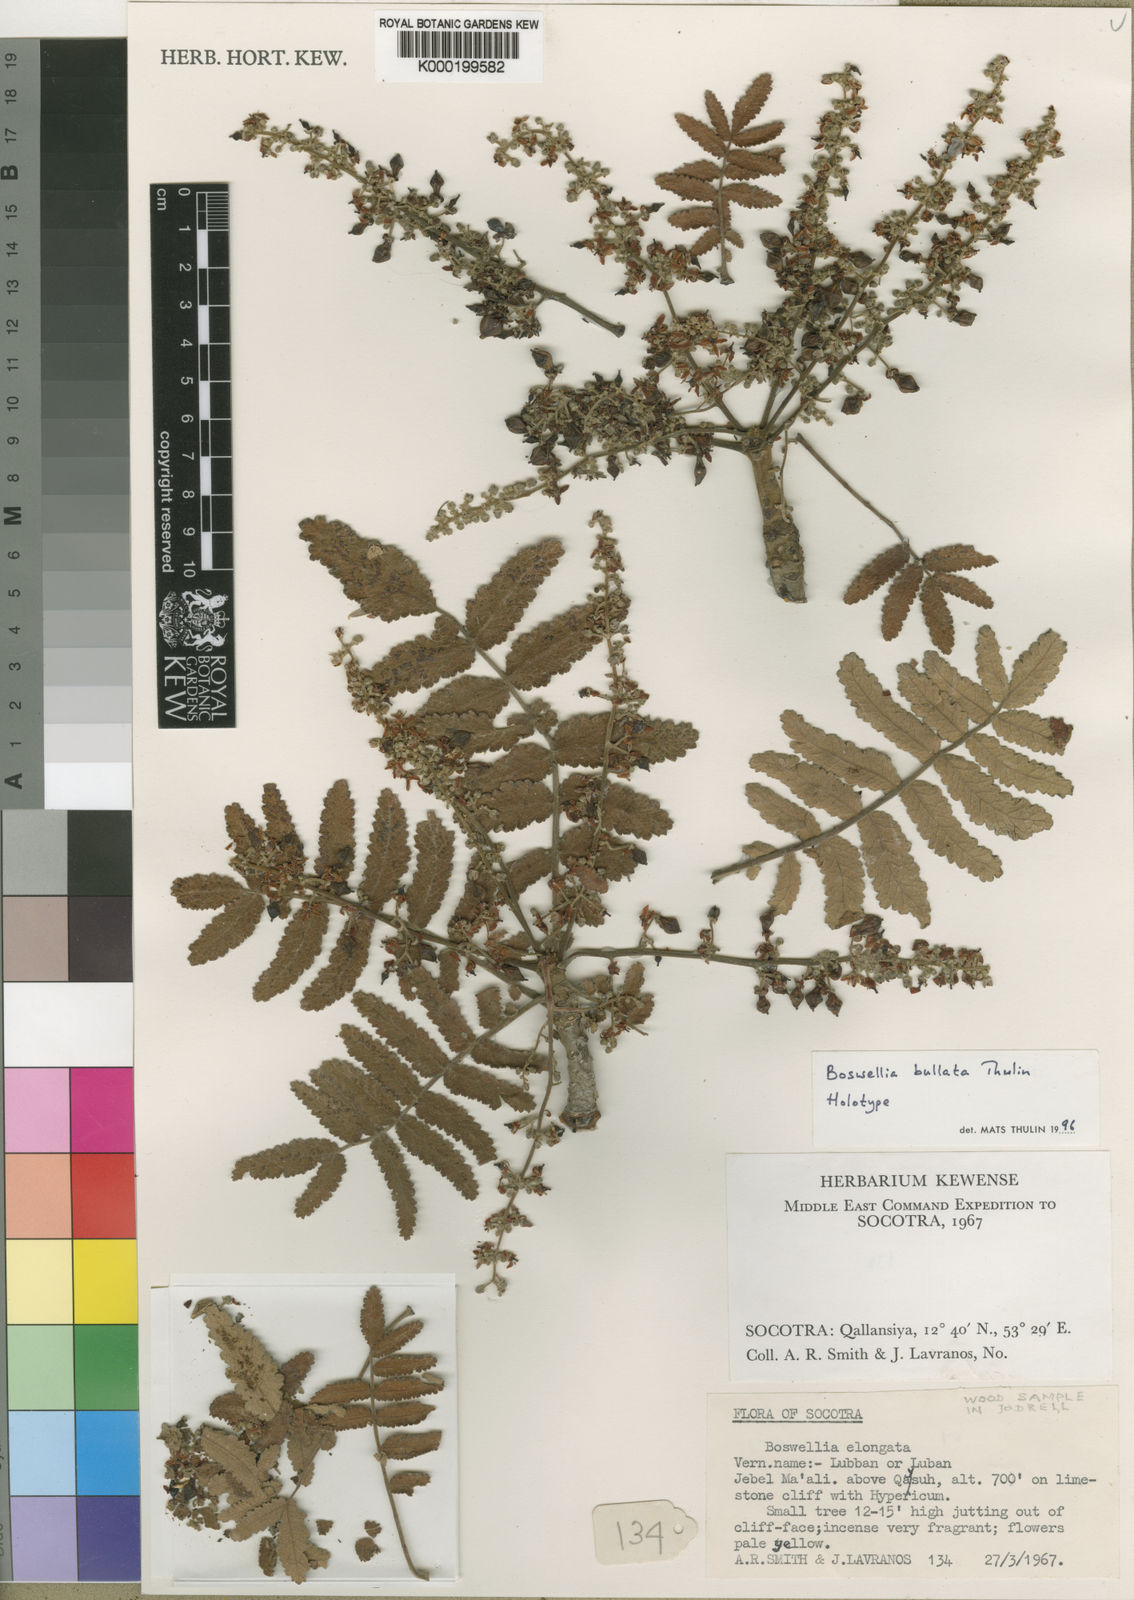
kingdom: Plantae
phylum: Tracheophyta
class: Magnoliopsida
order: Sapindales
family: Burseraceae
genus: Boswellia
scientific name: Boswellia bullata
